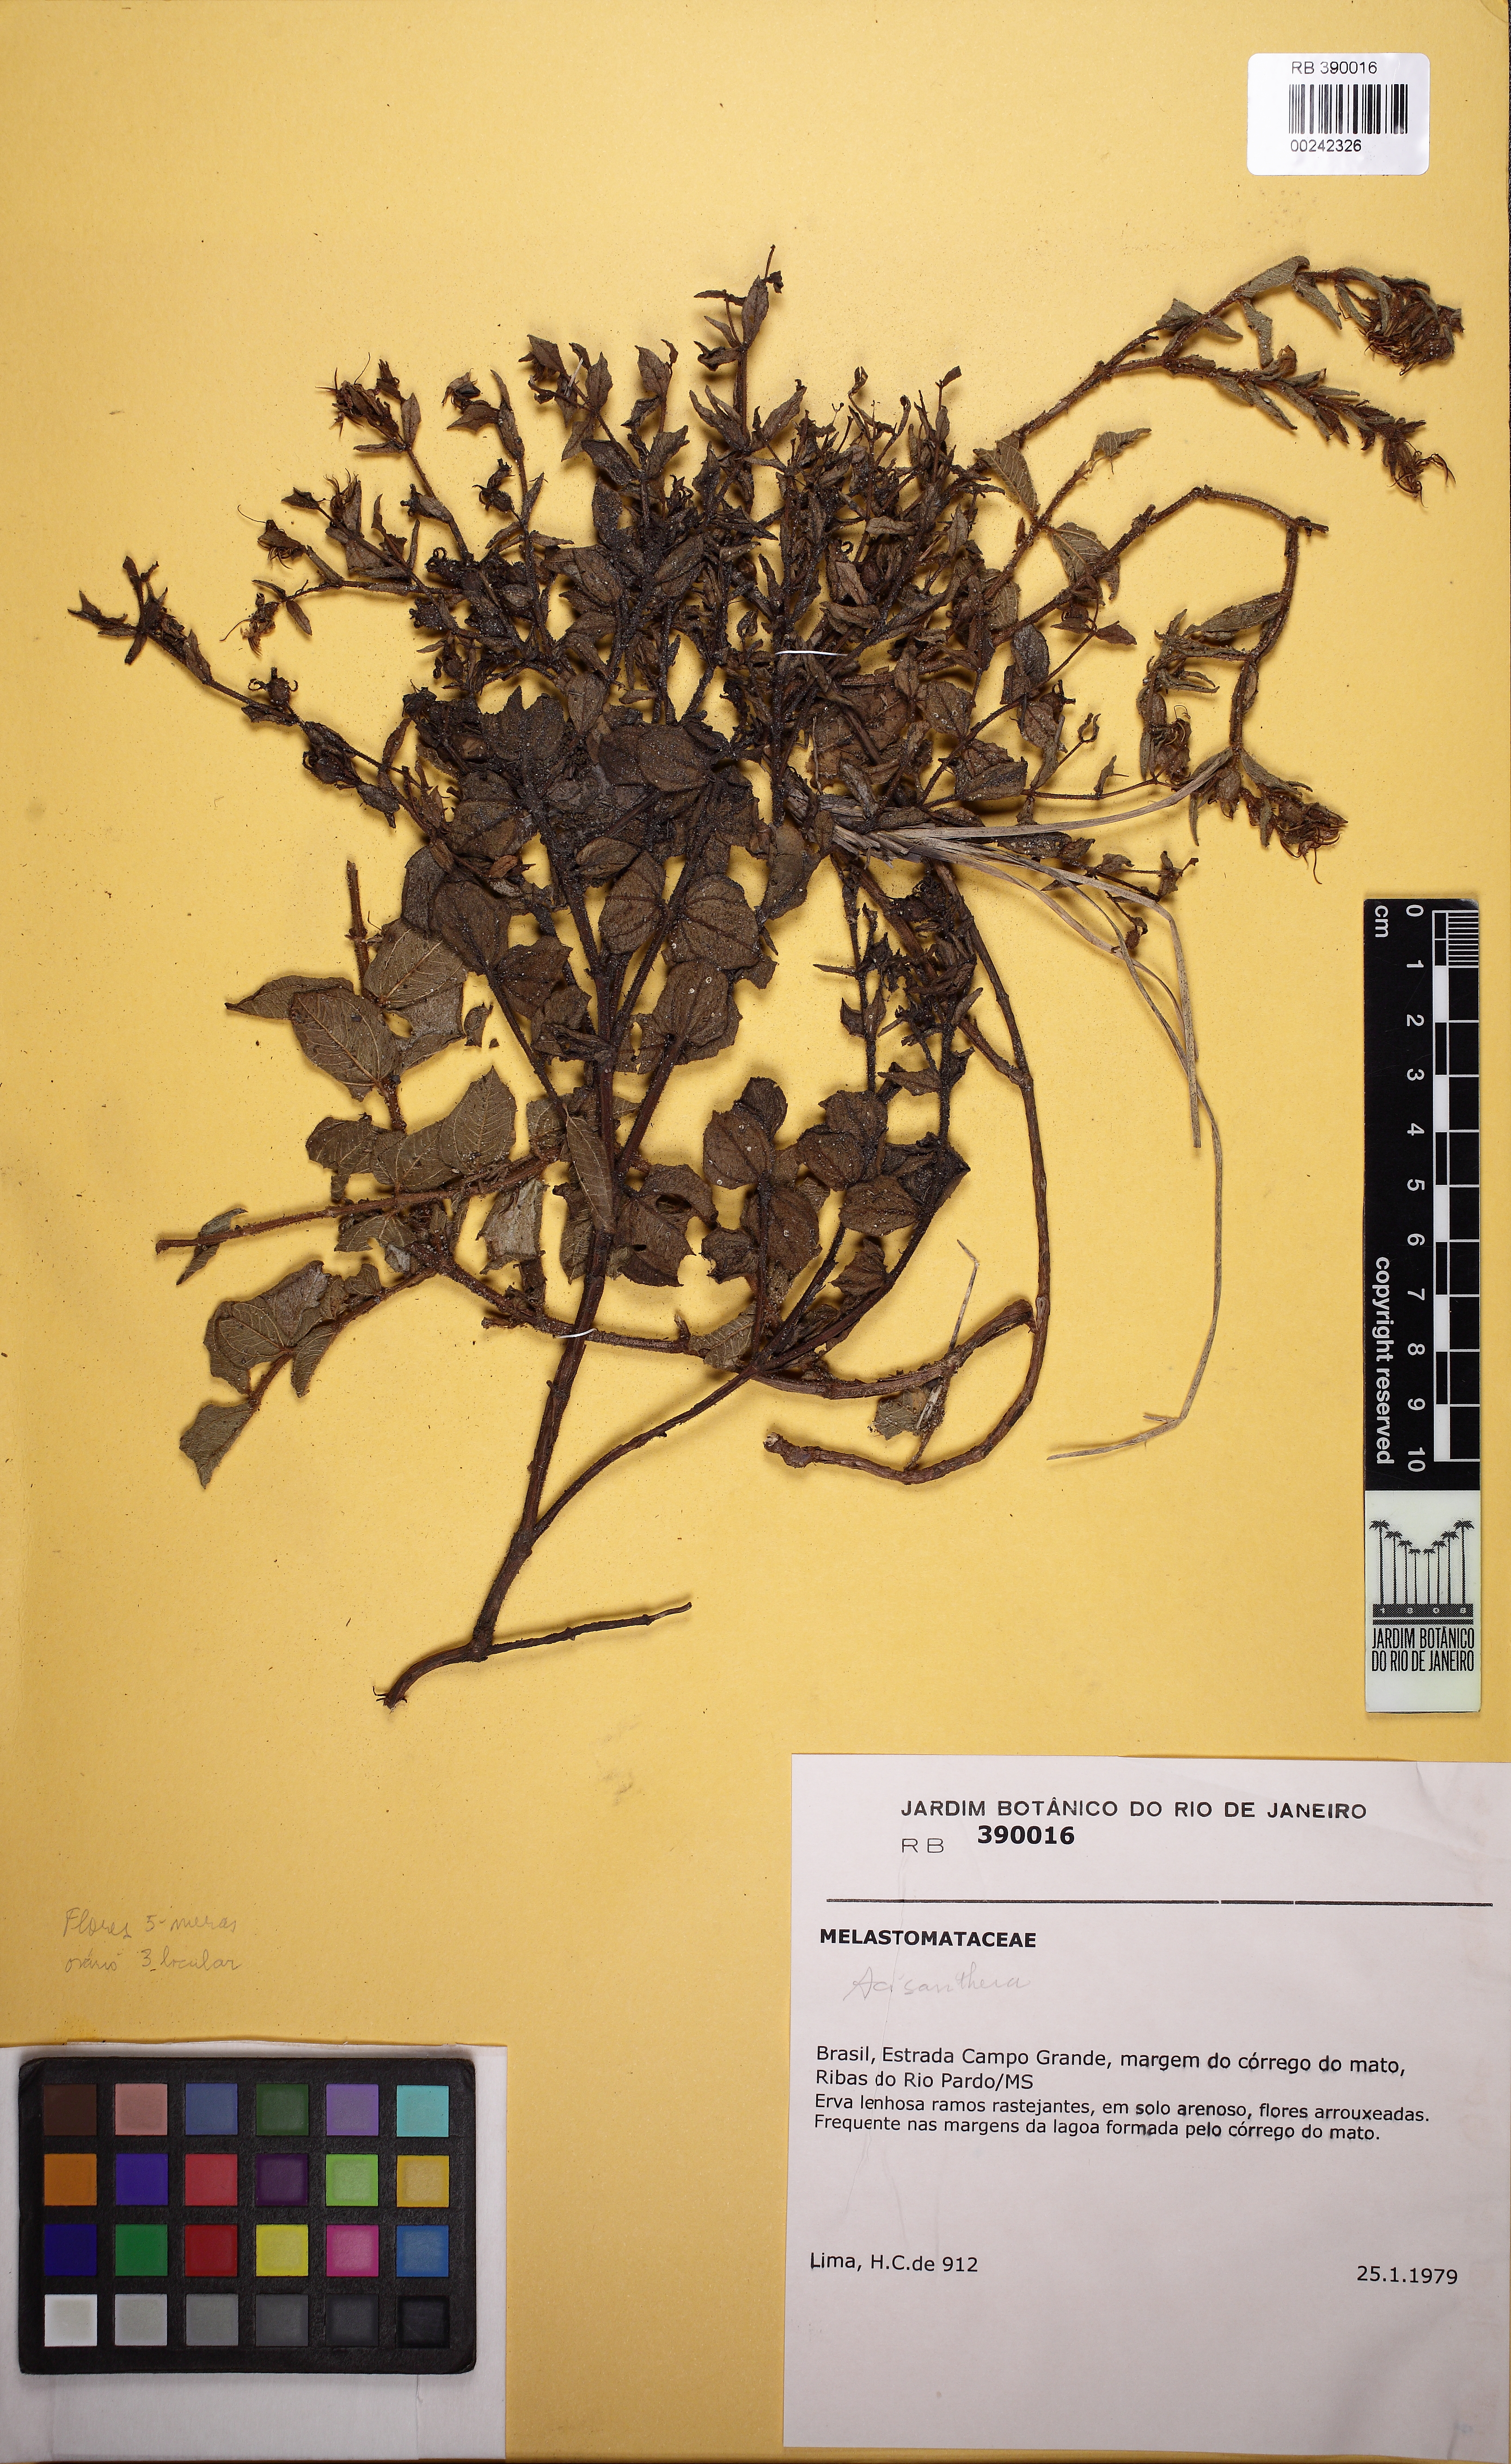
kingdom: Plantae
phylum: Tracheophyta
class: Magnoliopsida
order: Myrtales
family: Melastomataceae
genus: Acisanthera
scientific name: Acisanthera alsinaefolia
